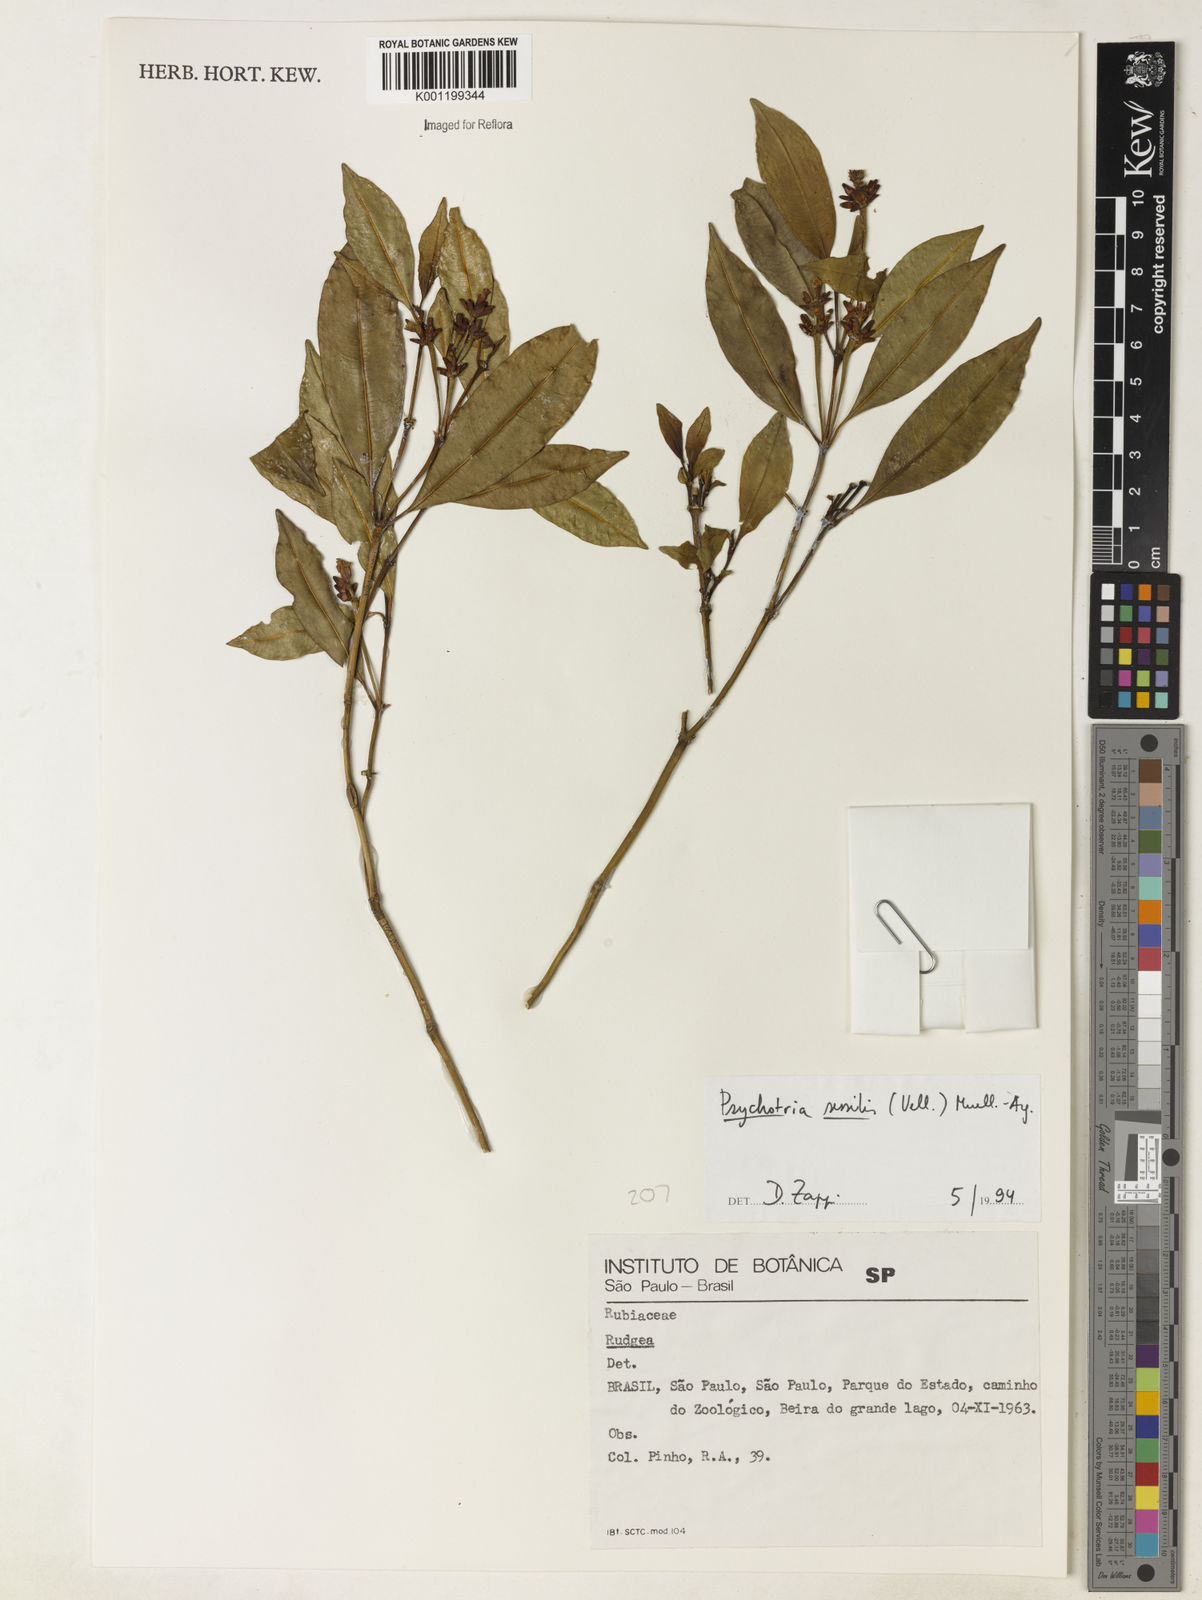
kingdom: Plantae
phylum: Tracheophyta
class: Magnoliopsida
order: Gentianales
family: Rubiaceae
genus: Rudgea
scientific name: Rudgea sessilis
